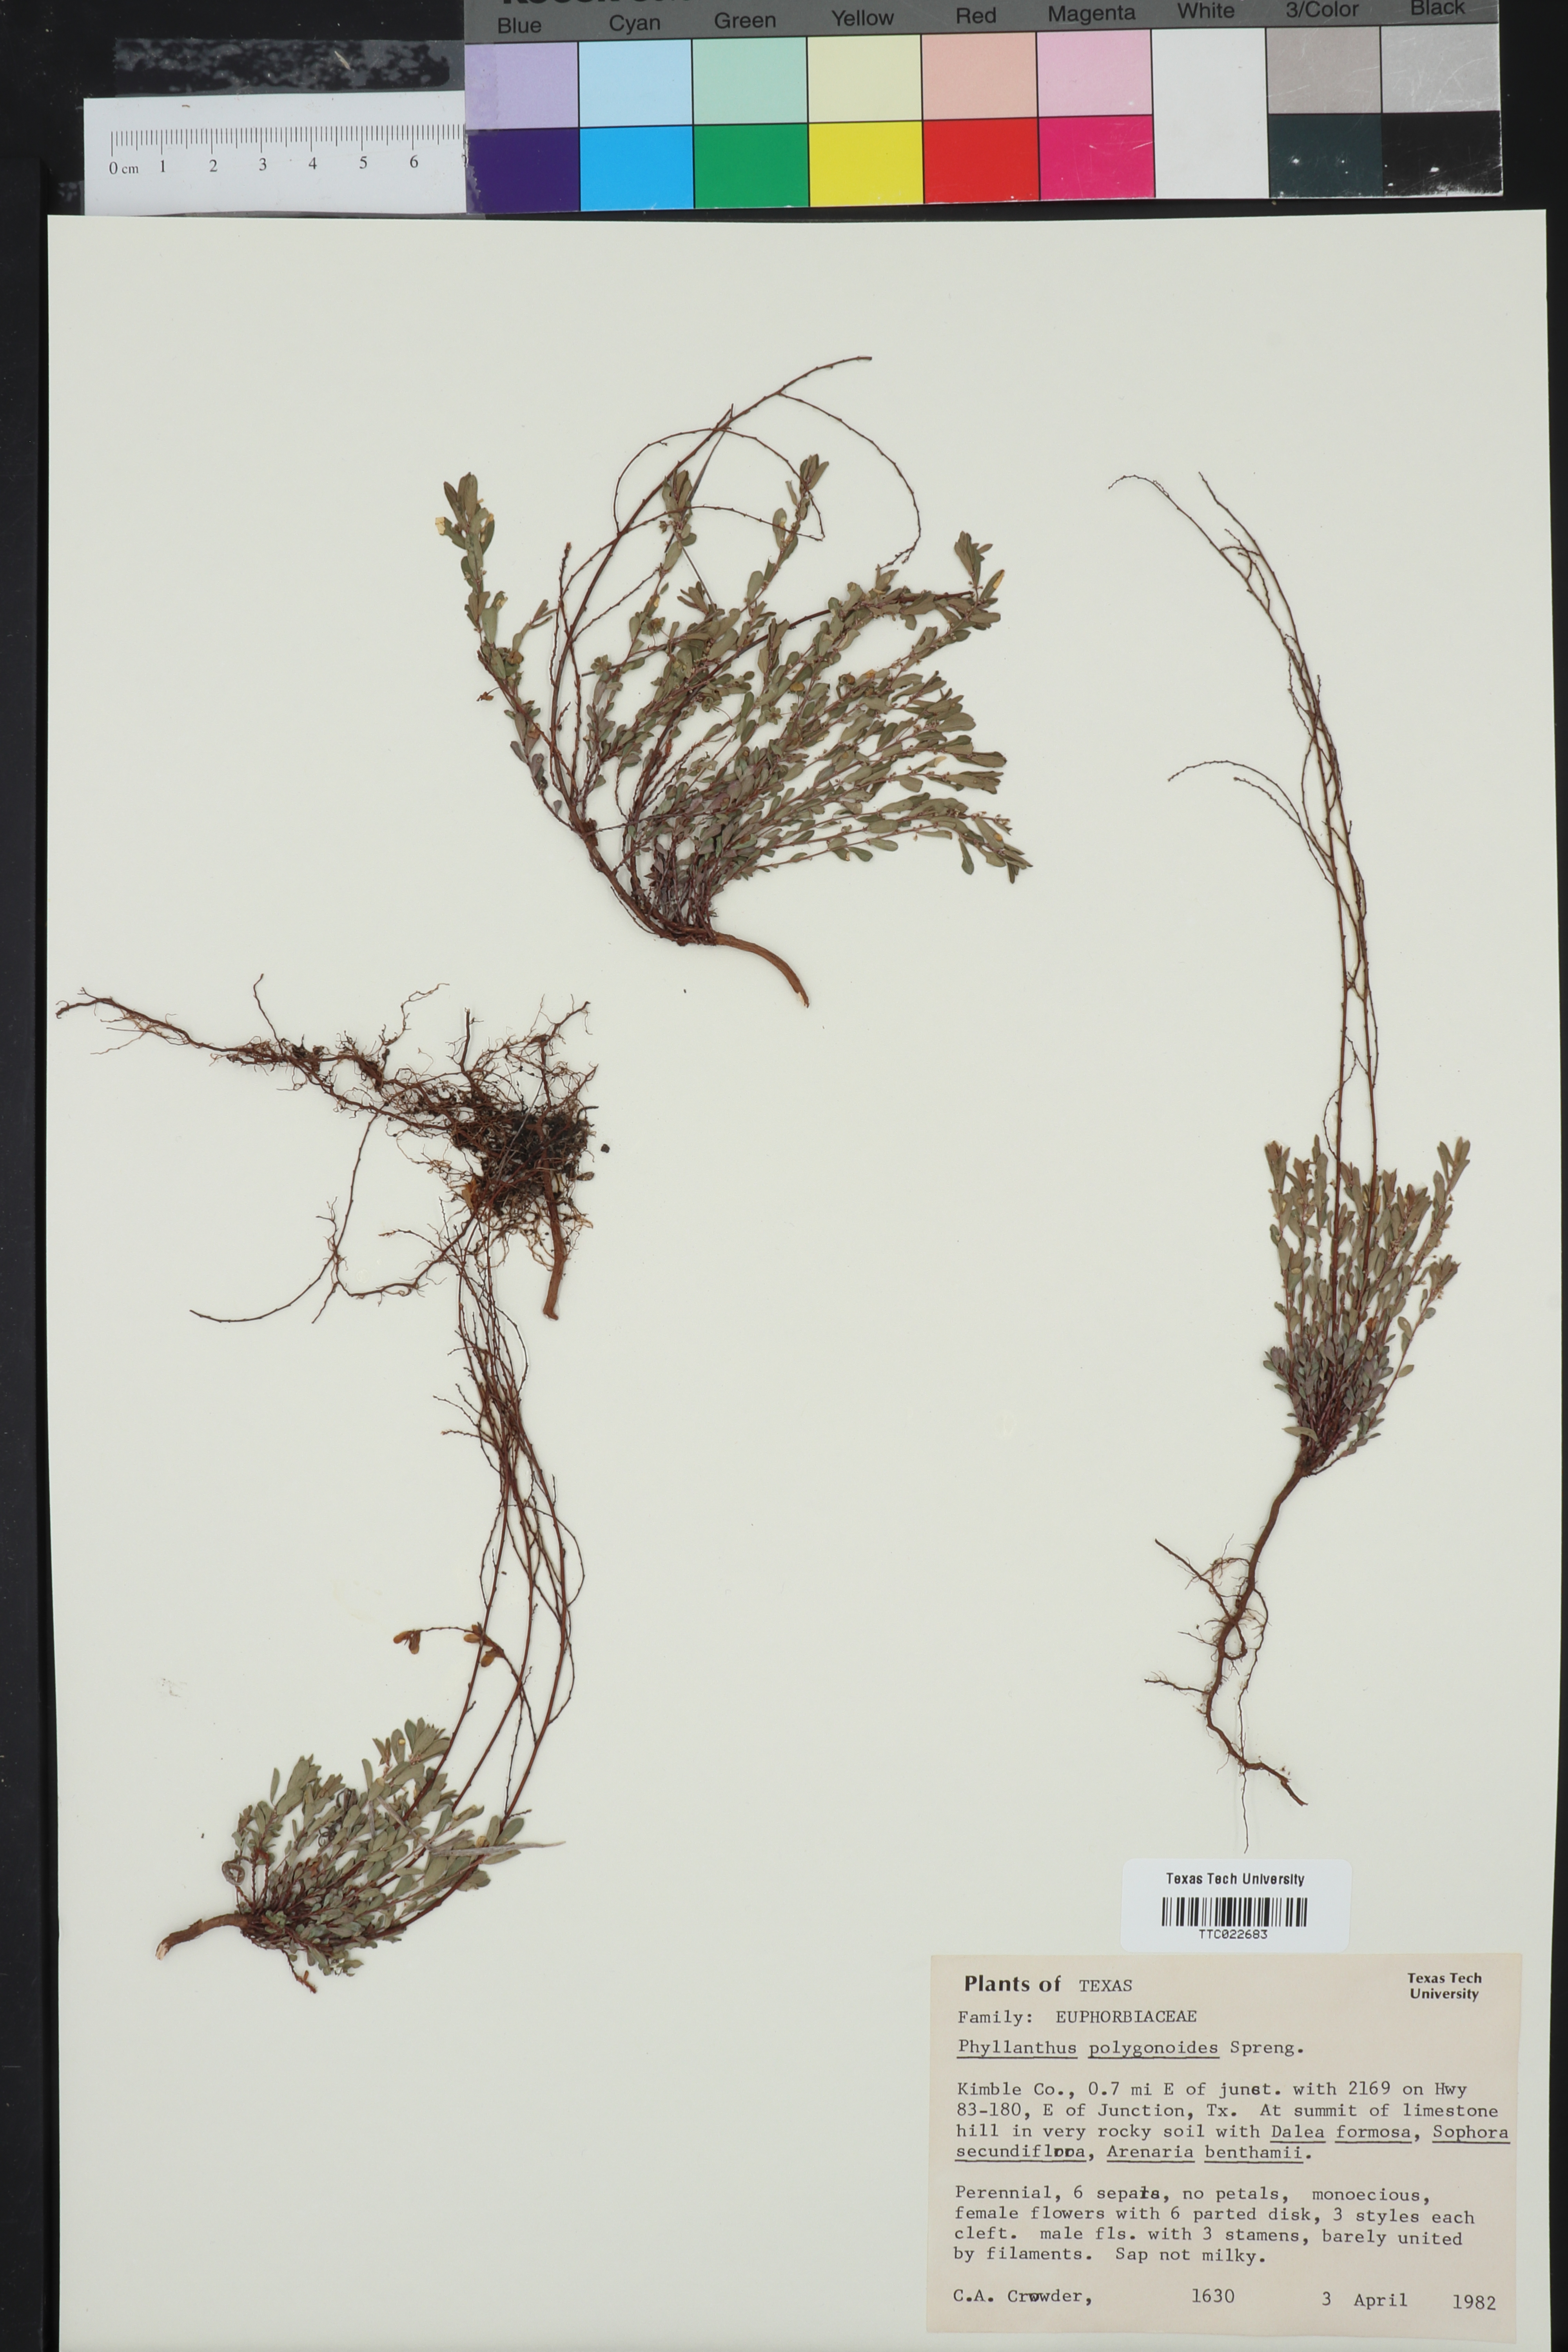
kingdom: Plantae
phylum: Tracheophyta
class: Magnoliopsida
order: Malpighiales
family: Phyllanthaceae
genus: Phyllanthus
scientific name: Phyllanthus polygonoides
